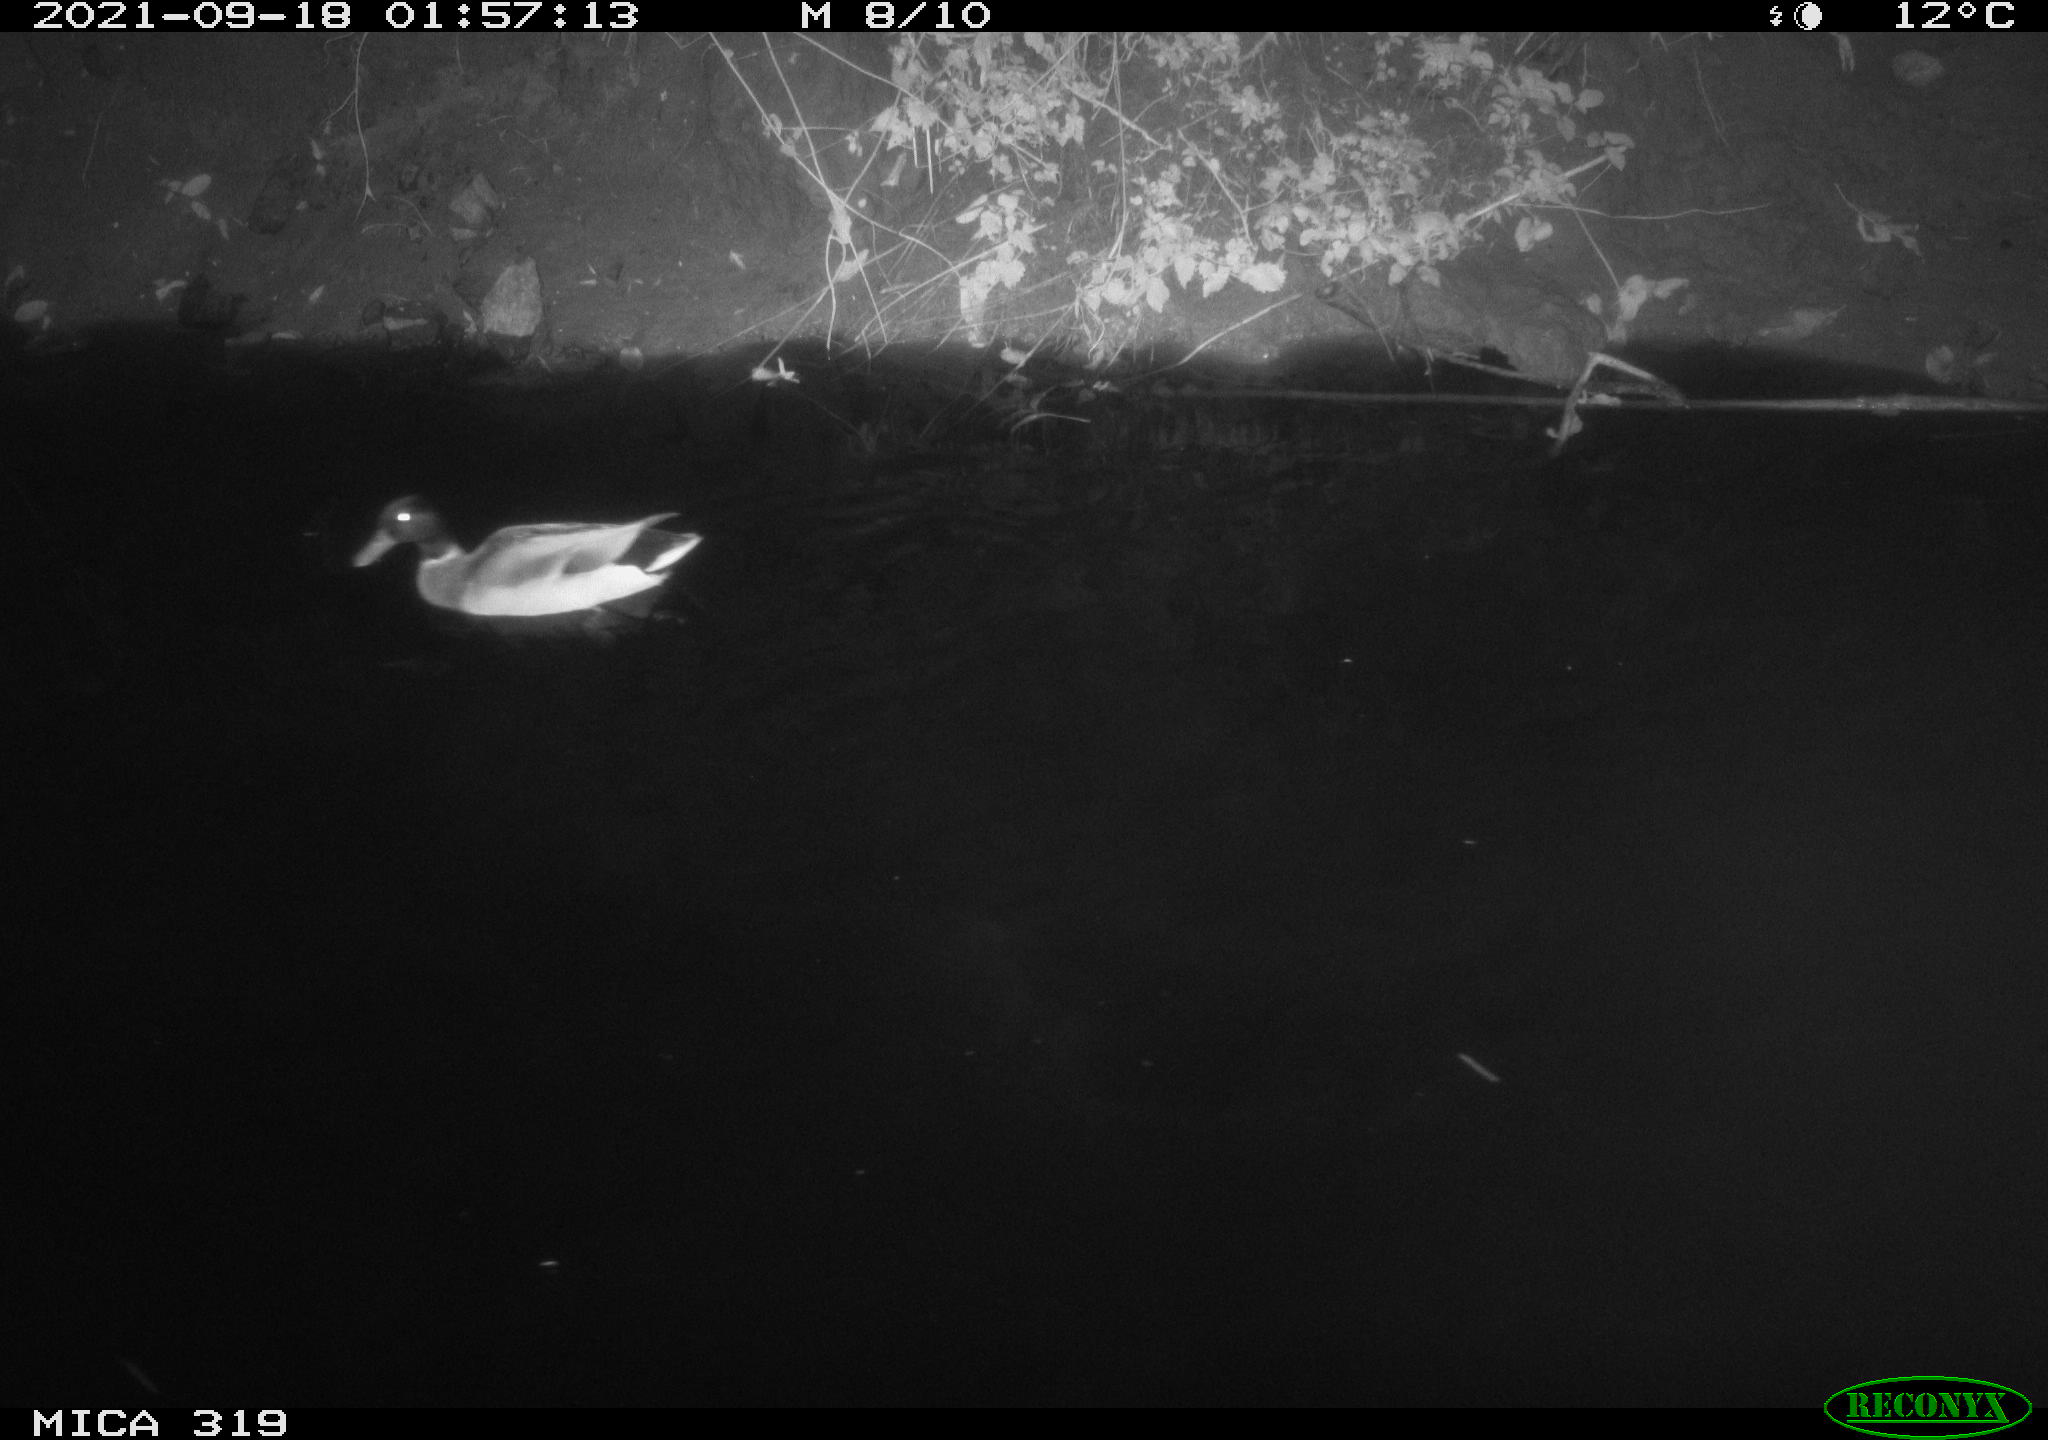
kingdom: Animalia
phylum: Chordata
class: Aves
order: Anseriformes
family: Anatidae
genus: Anas
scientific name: Anas platyrhynchos
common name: Mallard
